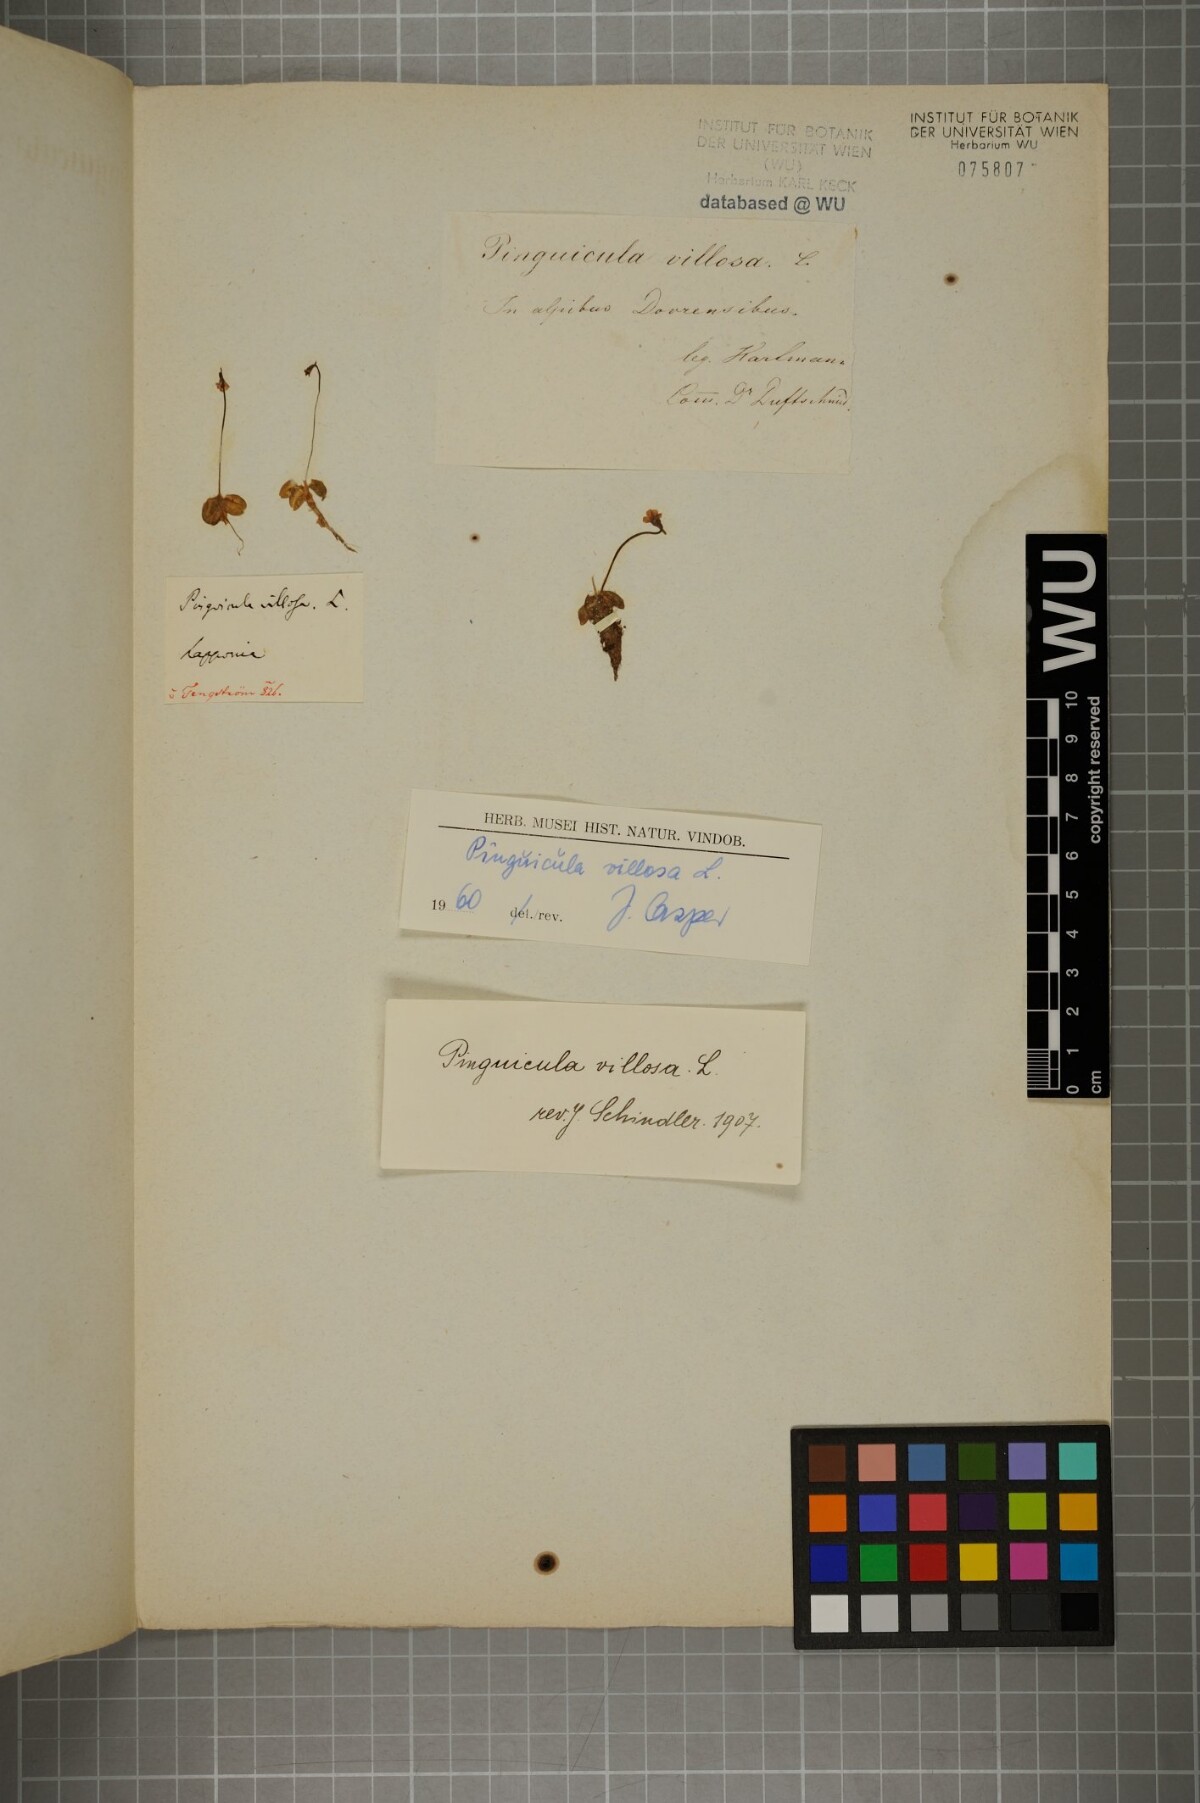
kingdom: Plantae
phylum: Tracheophyta
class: Magnoliopsida
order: Lamiales
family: Lentibulariaceae
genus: Pinguicula
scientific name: Pinguicula villosa
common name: Hairy butterwort
